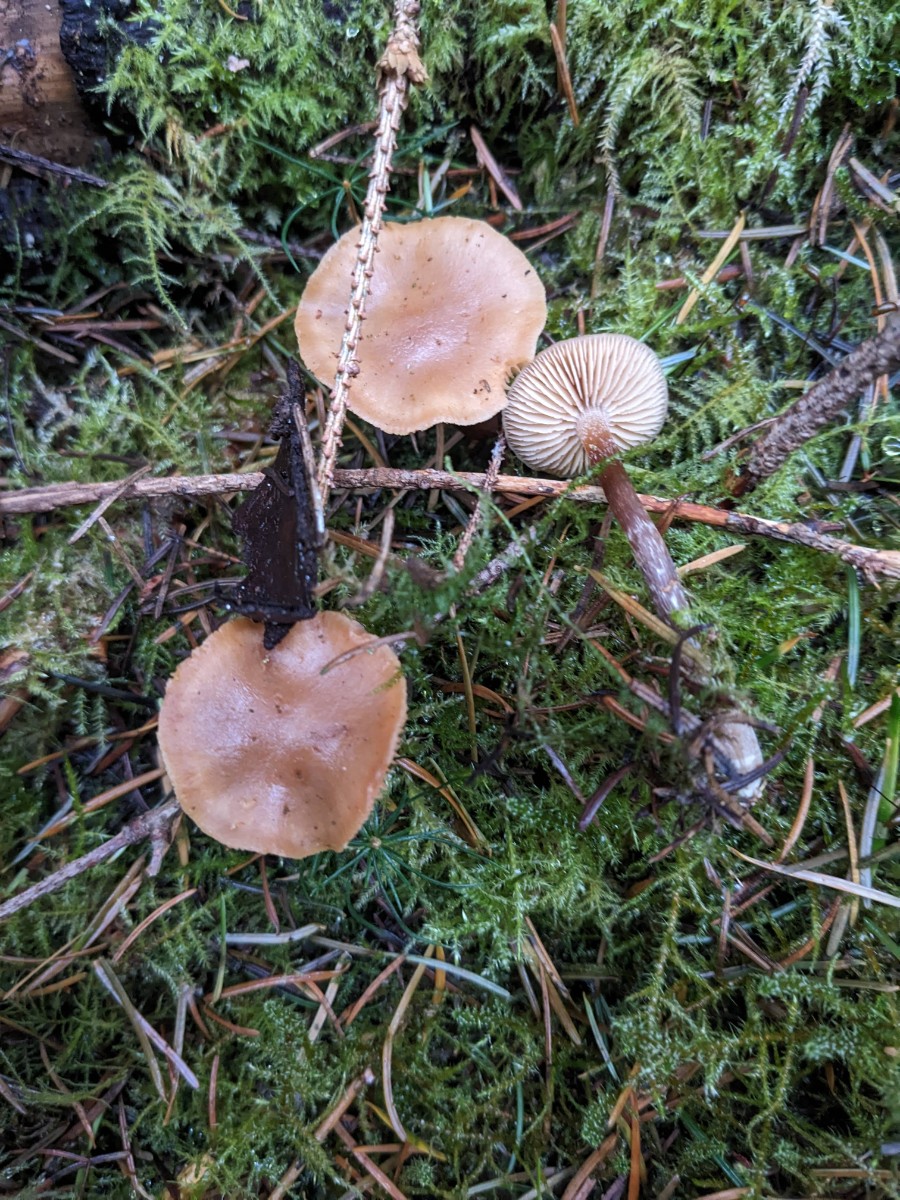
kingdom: Fungi
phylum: Basidiomycota
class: Agaricomycetes
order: Agaricales
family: Hymenogastraceae
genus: Galerina
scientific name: Galerina sideroides
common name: træflis-hjelmhat
